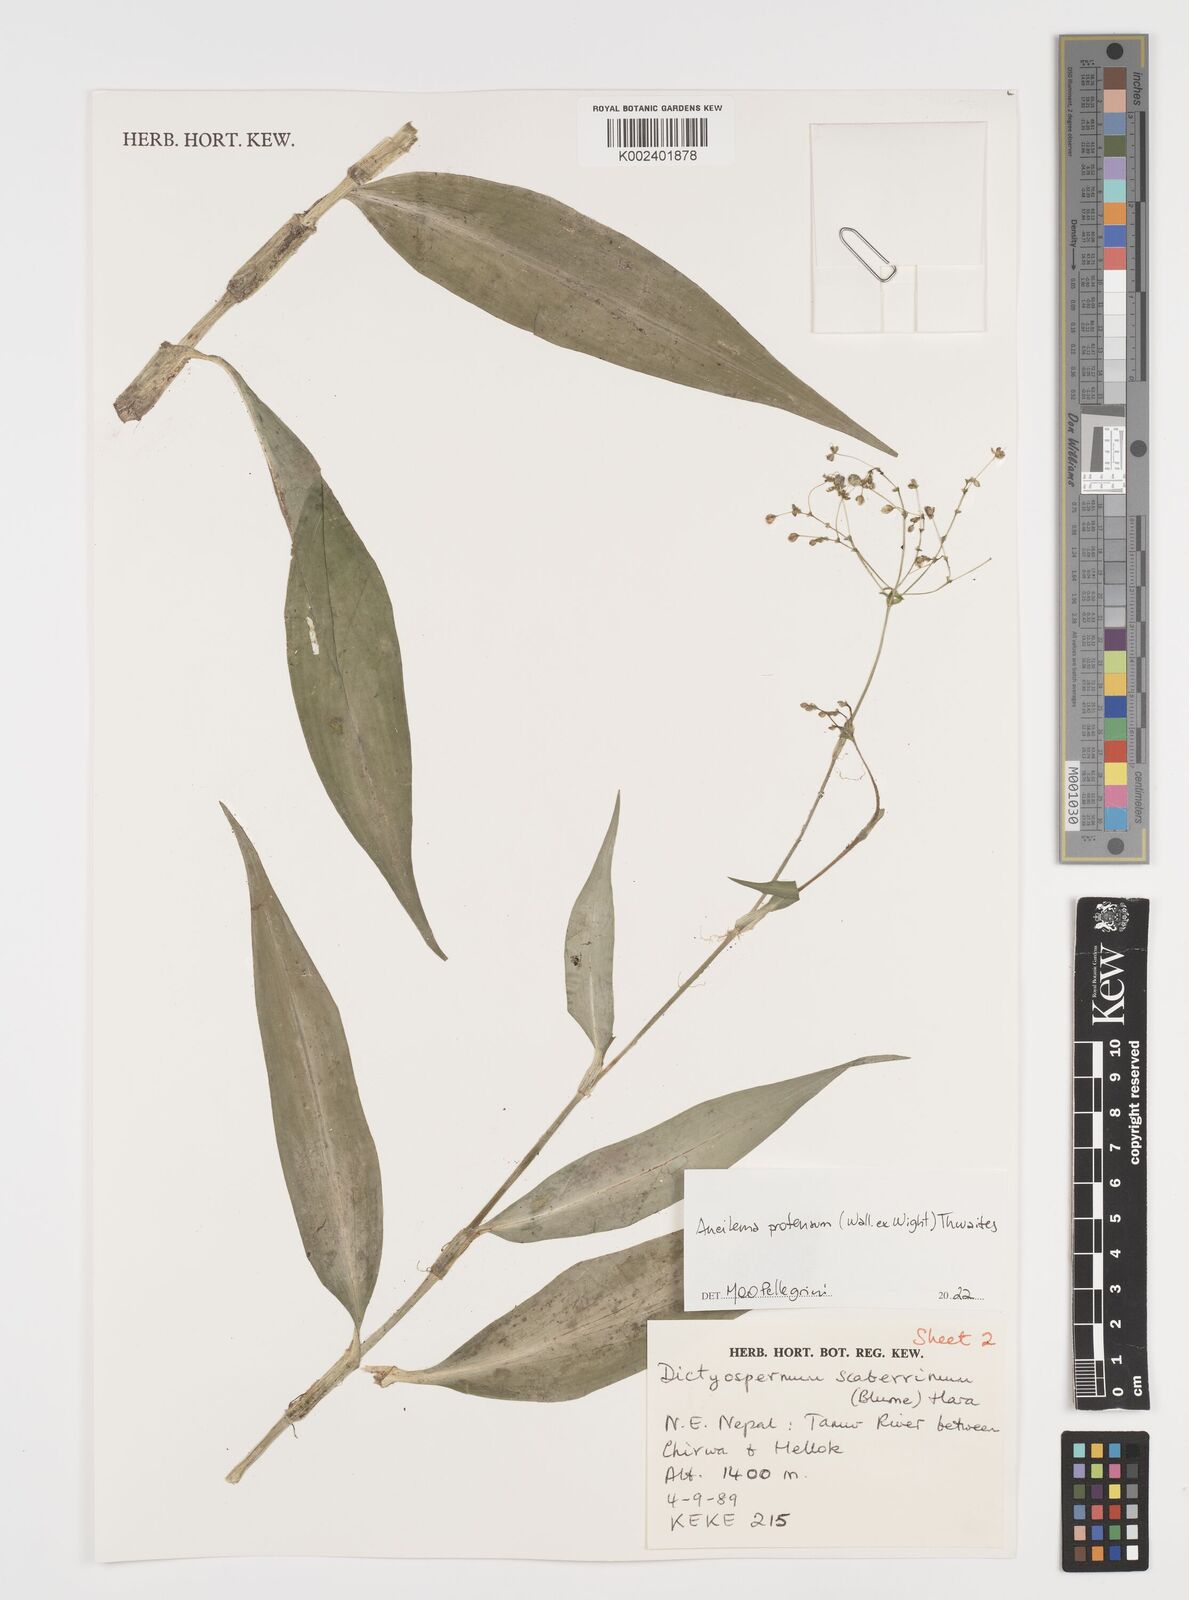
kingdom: Plantae
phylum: Tracheophyta
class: Liliopsida
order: Commelinales
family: Commelinaceae
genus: Rhopalephora
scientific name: Rhopalephora scaberrima
